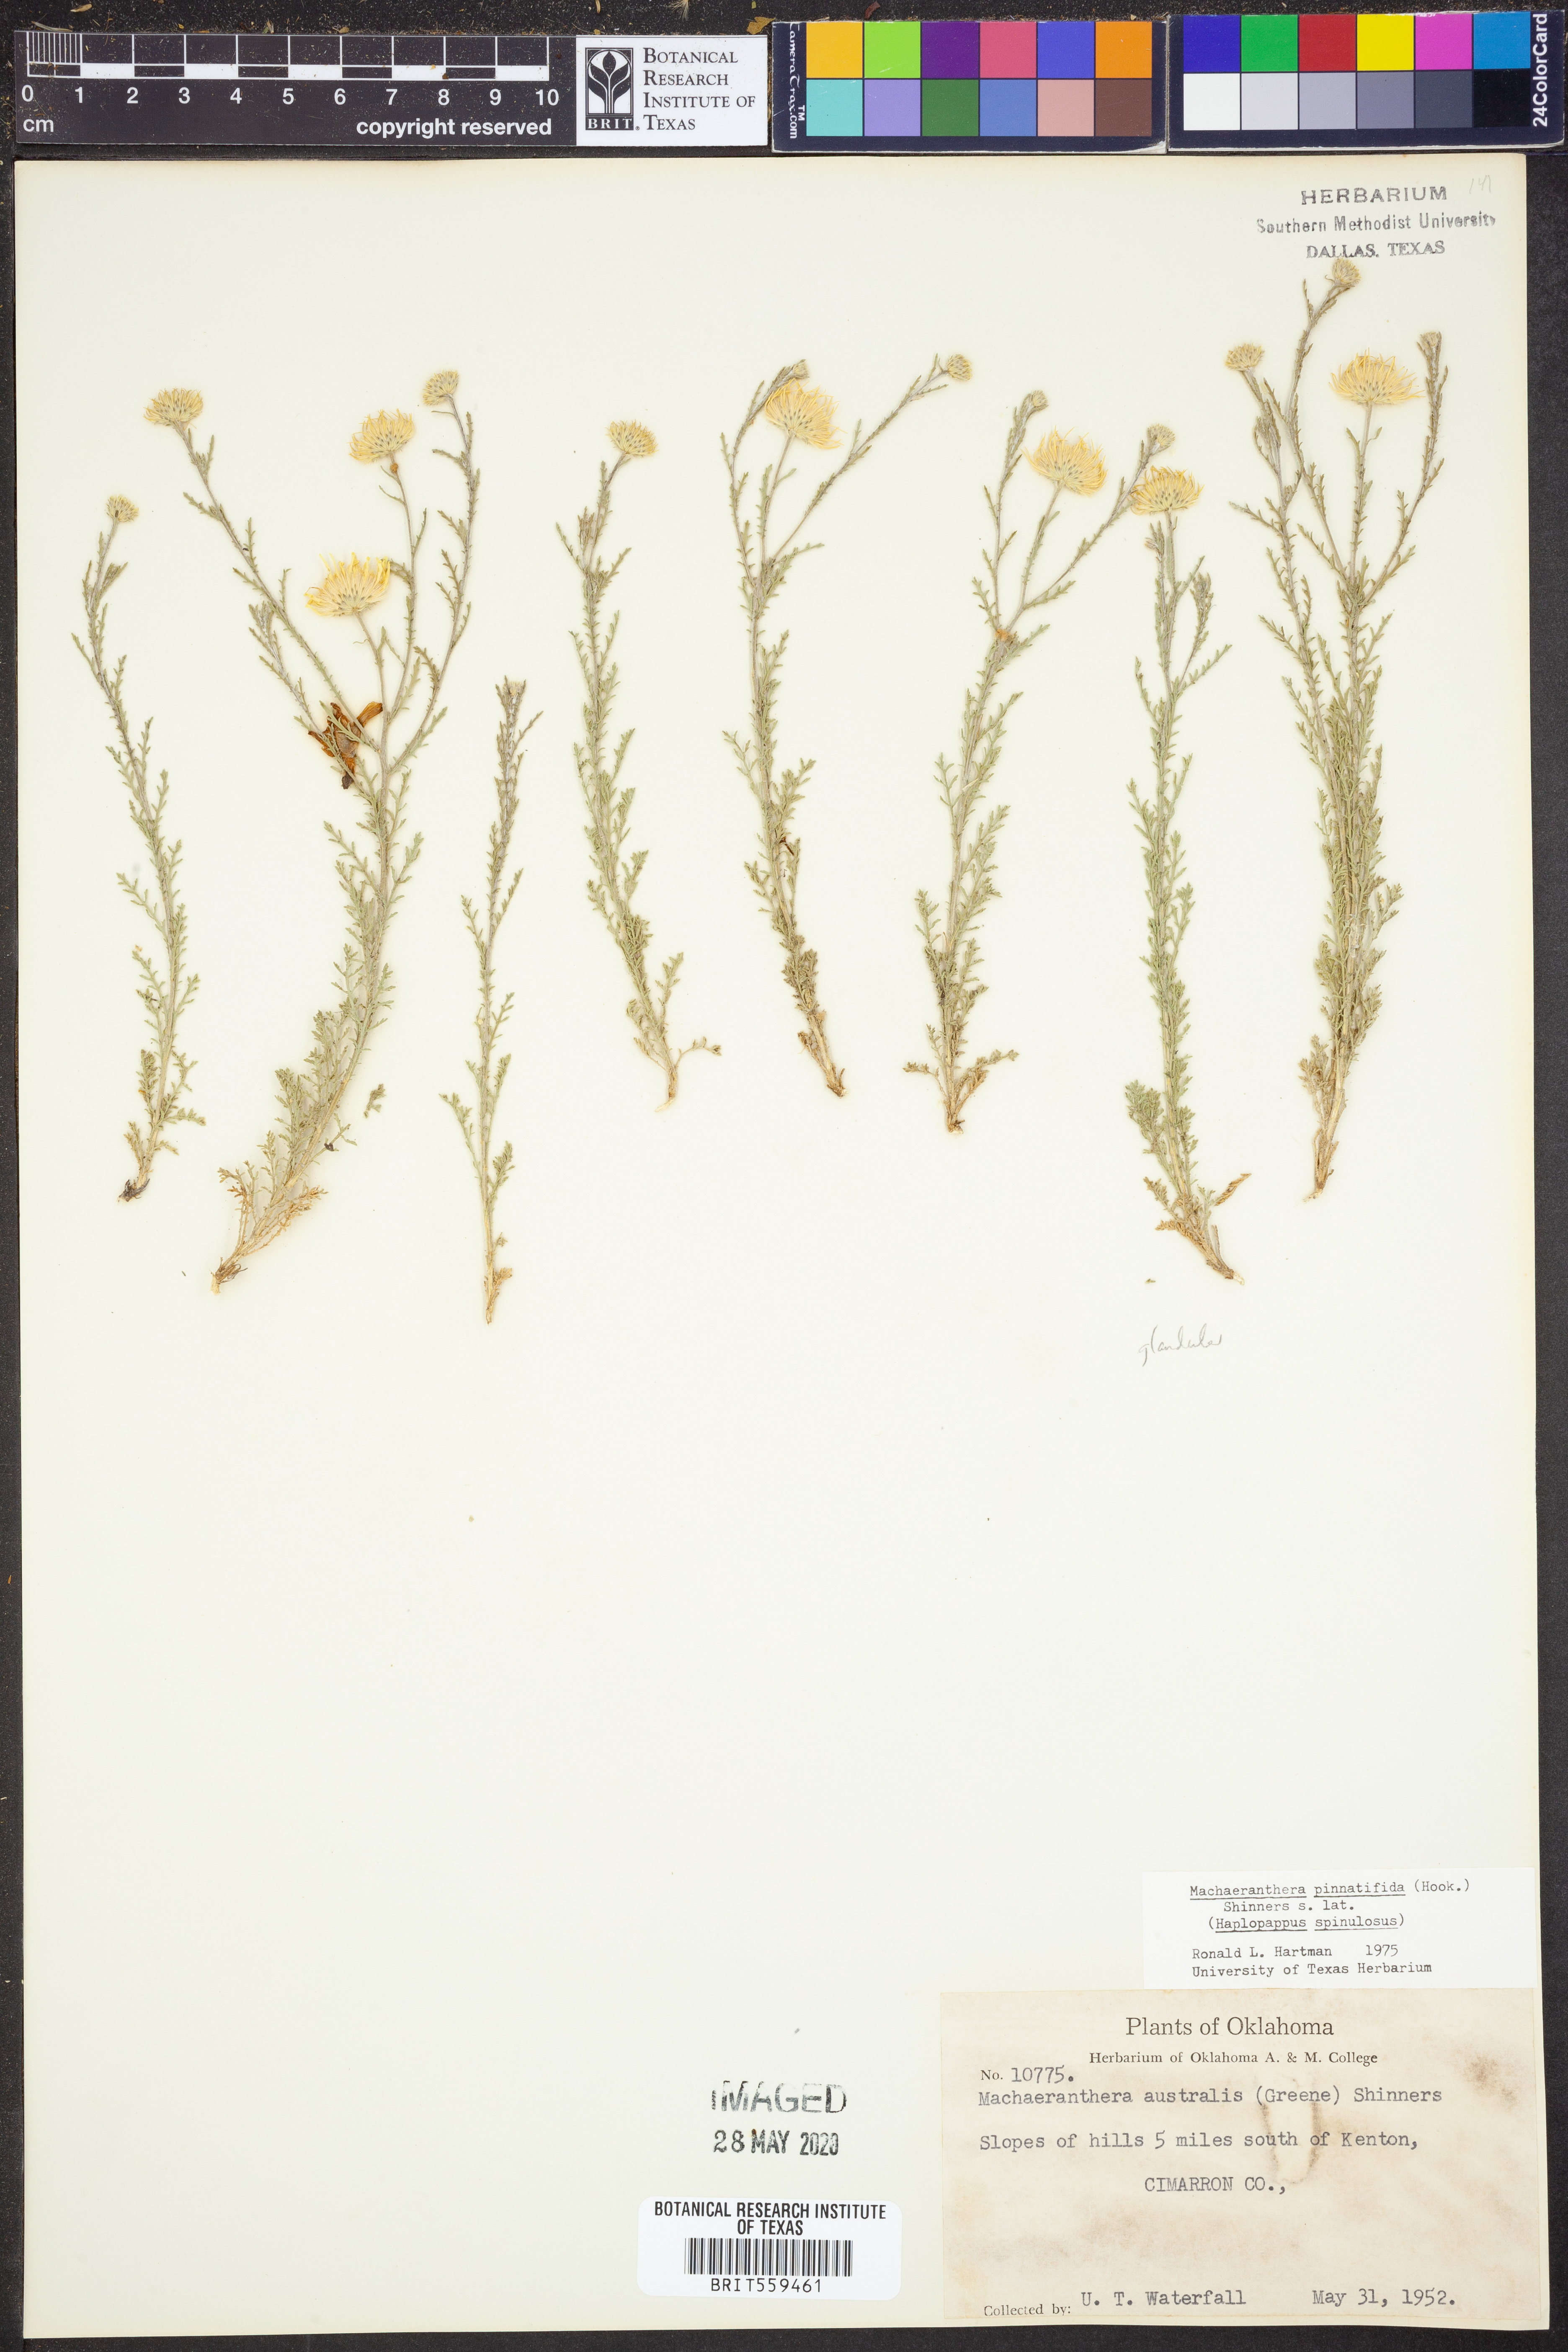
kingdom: Plantae
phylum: Tracheophyta
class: Magnoliopsida
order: Asterales
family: Asteraceae
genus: Xanthisma
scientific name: Xanthisma spinulosum
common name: Spiny goldenweed
